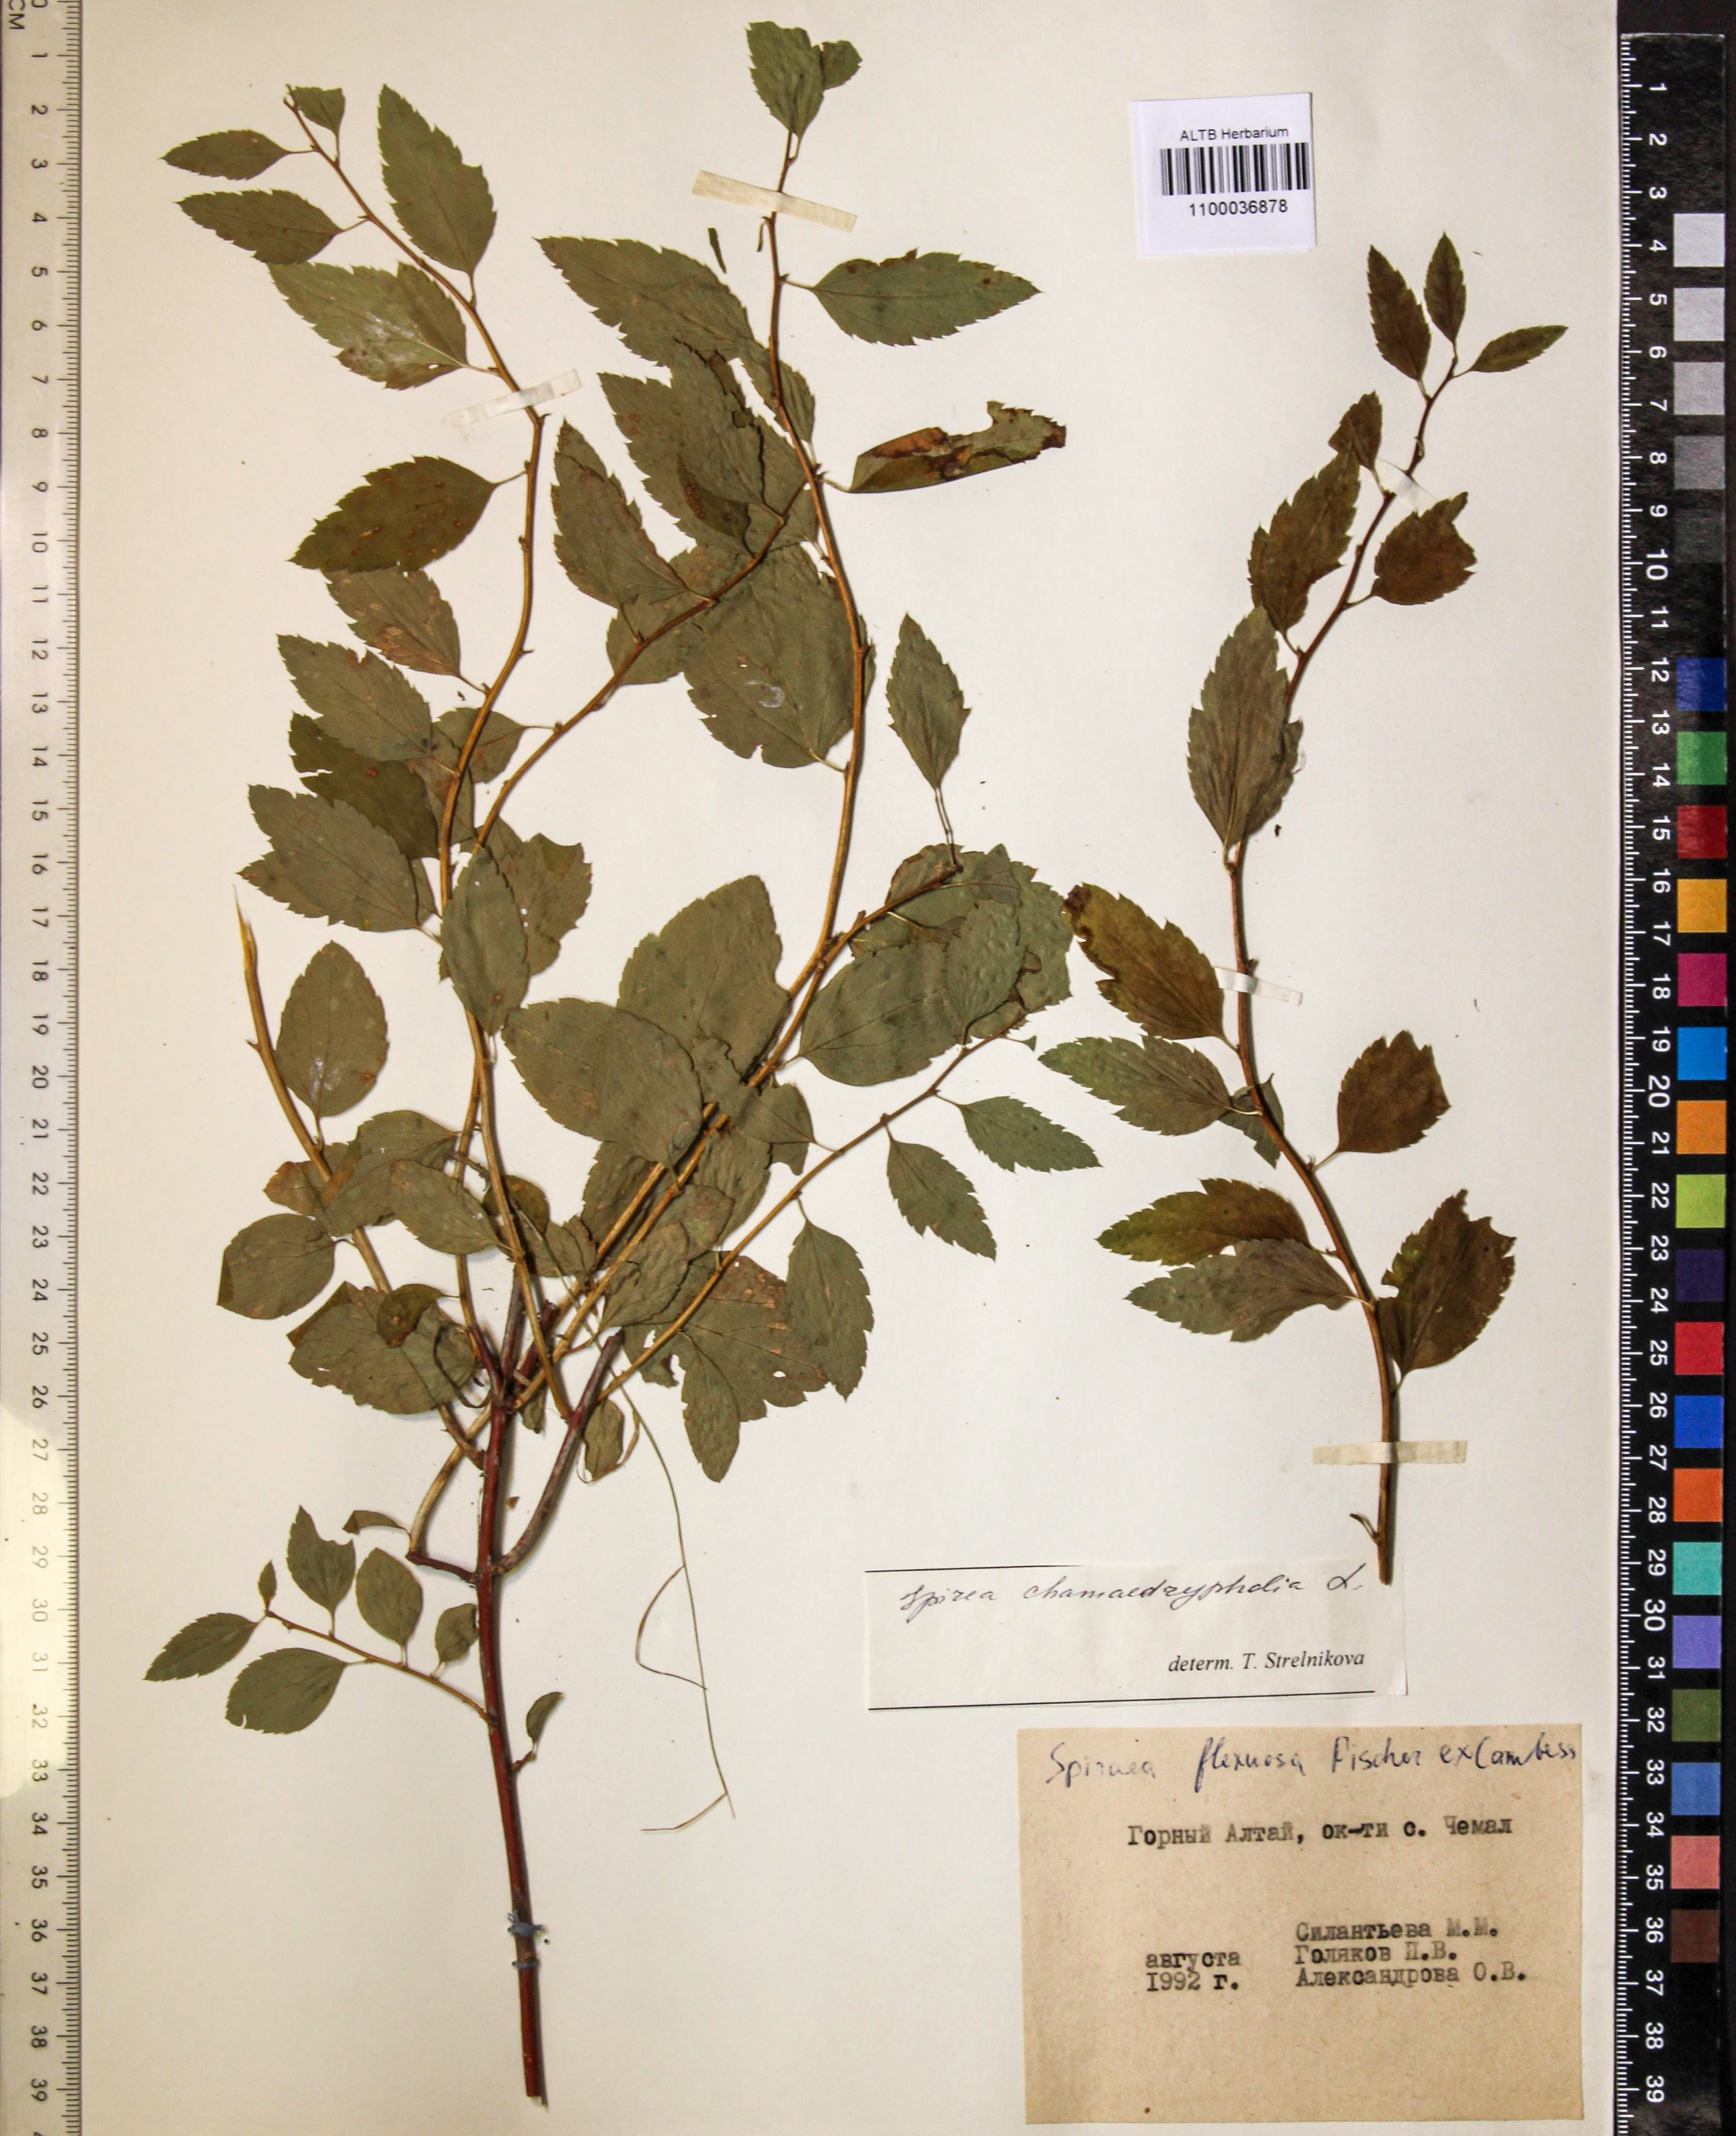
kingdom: Plantae
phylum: Tracheophyta
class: Magnoliopsida
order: Rosales
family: Rosaceae
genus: Spiraea
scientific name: Spiraea chamaedryfolia
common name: Elm-leaved spiraea
